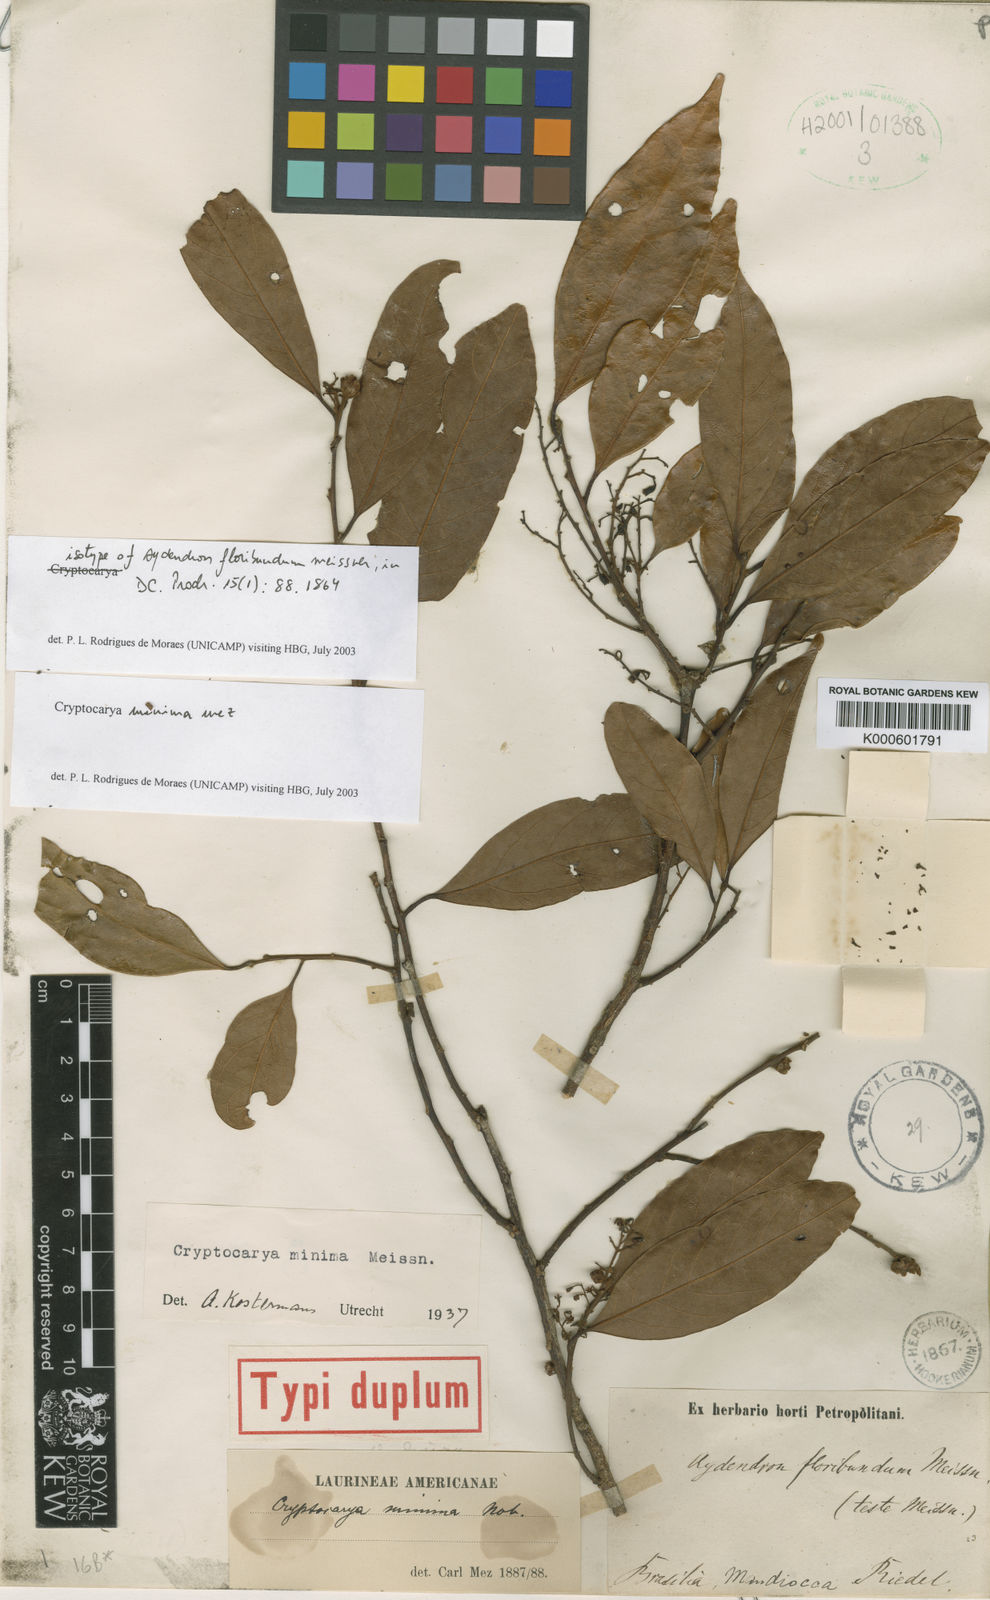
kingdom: Plantae
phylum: Tracheophyta
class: Magnoliopsida
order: Laurales
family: Lauraceae
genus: Cryptocarya
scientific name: Cryptocarya citriformis
